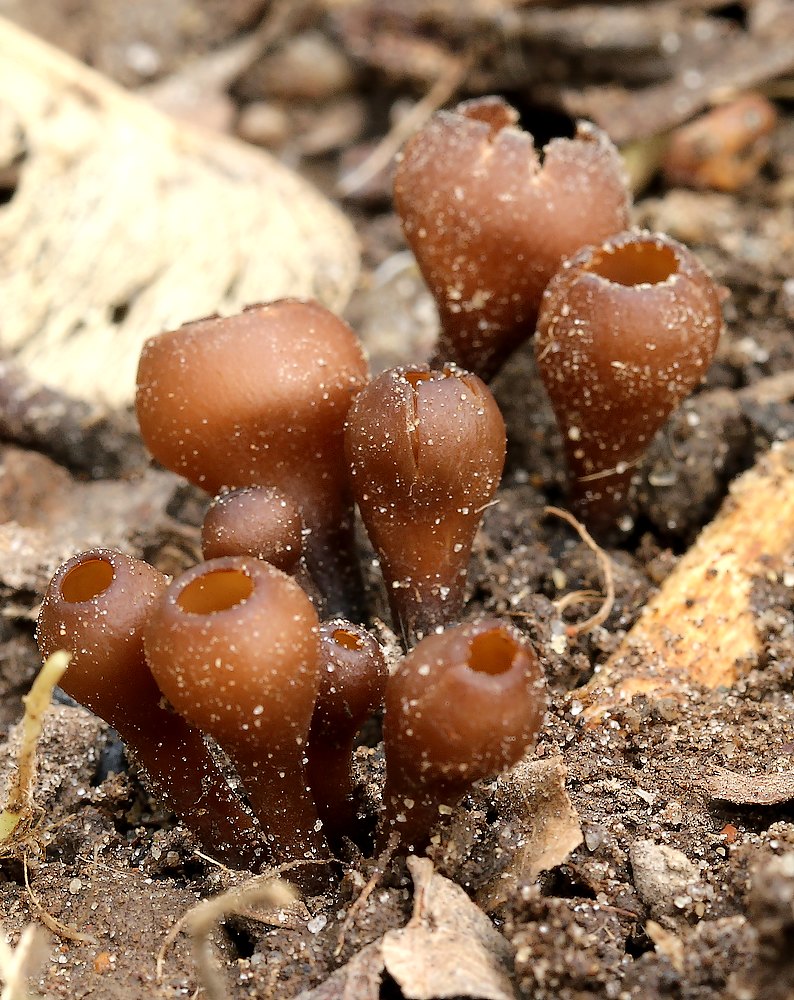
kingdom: Fungi
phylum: Ascomycota
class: Leotiomycetes
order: Helotiales
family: Sclerotiniaceae
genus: Dumontinia
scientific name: Dumontinia tuberosa
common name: anemone-knoldskive
